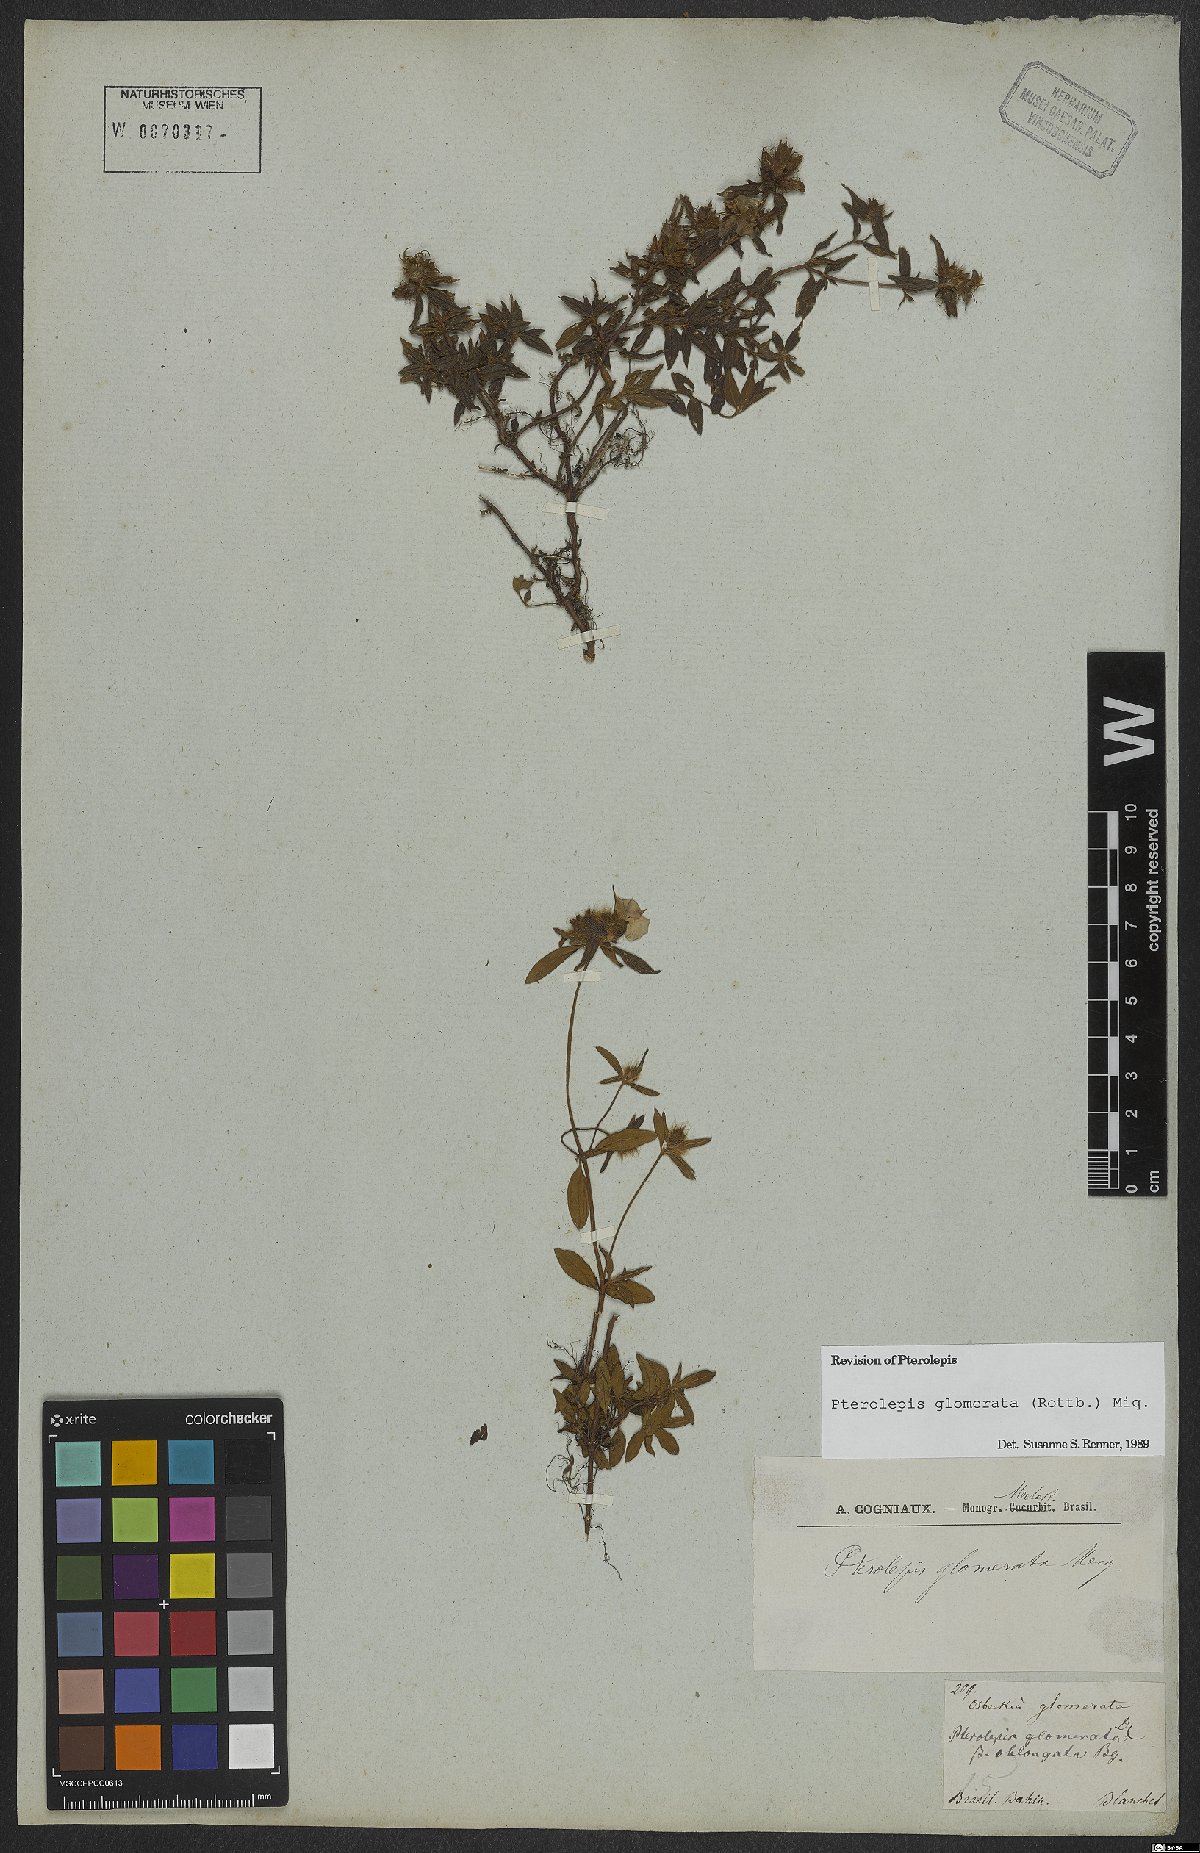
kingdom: Plantae
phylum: Tracheophyta
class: Magnoliopsida
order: Myrtales
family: Melastomataceae
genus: Pterolepis
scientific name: Pterolepis glomerata
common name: False meadowbeauty
